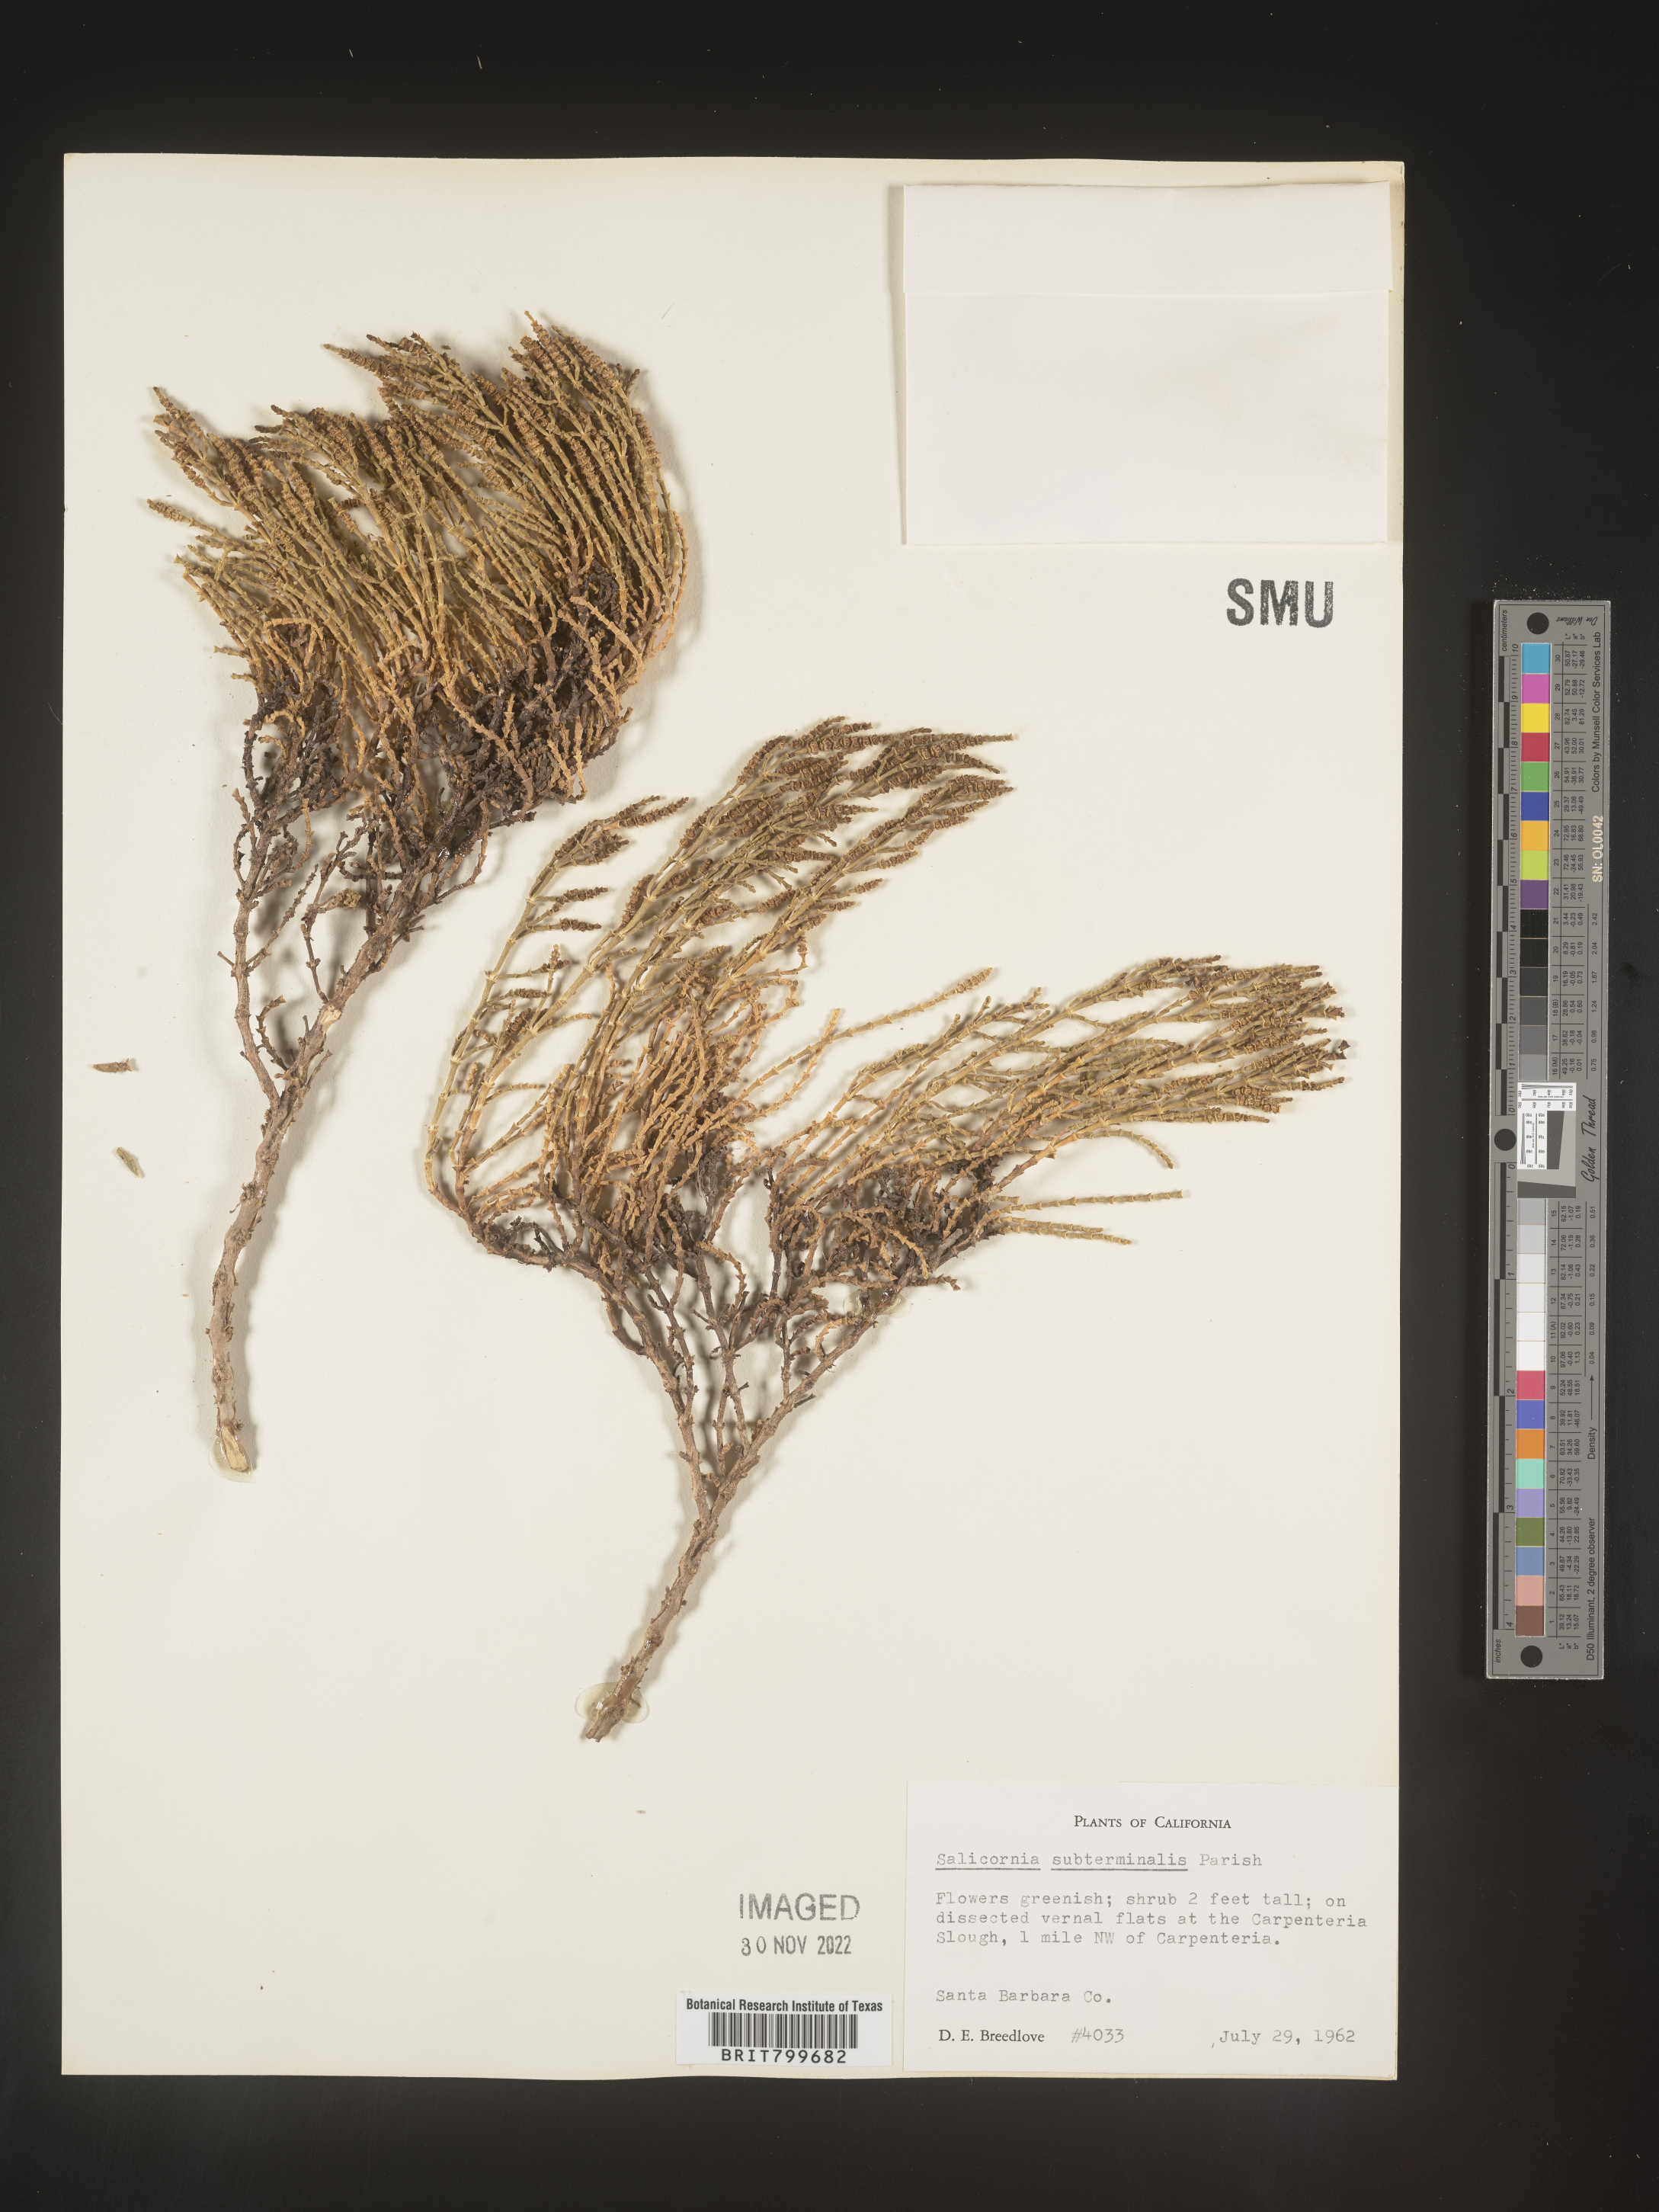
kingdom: Plantae
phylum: Tracheophyta
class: Magnoliopsida
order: Caryophyllales
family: Amaranthaceae
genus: Salicornia
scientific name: Salicornia
